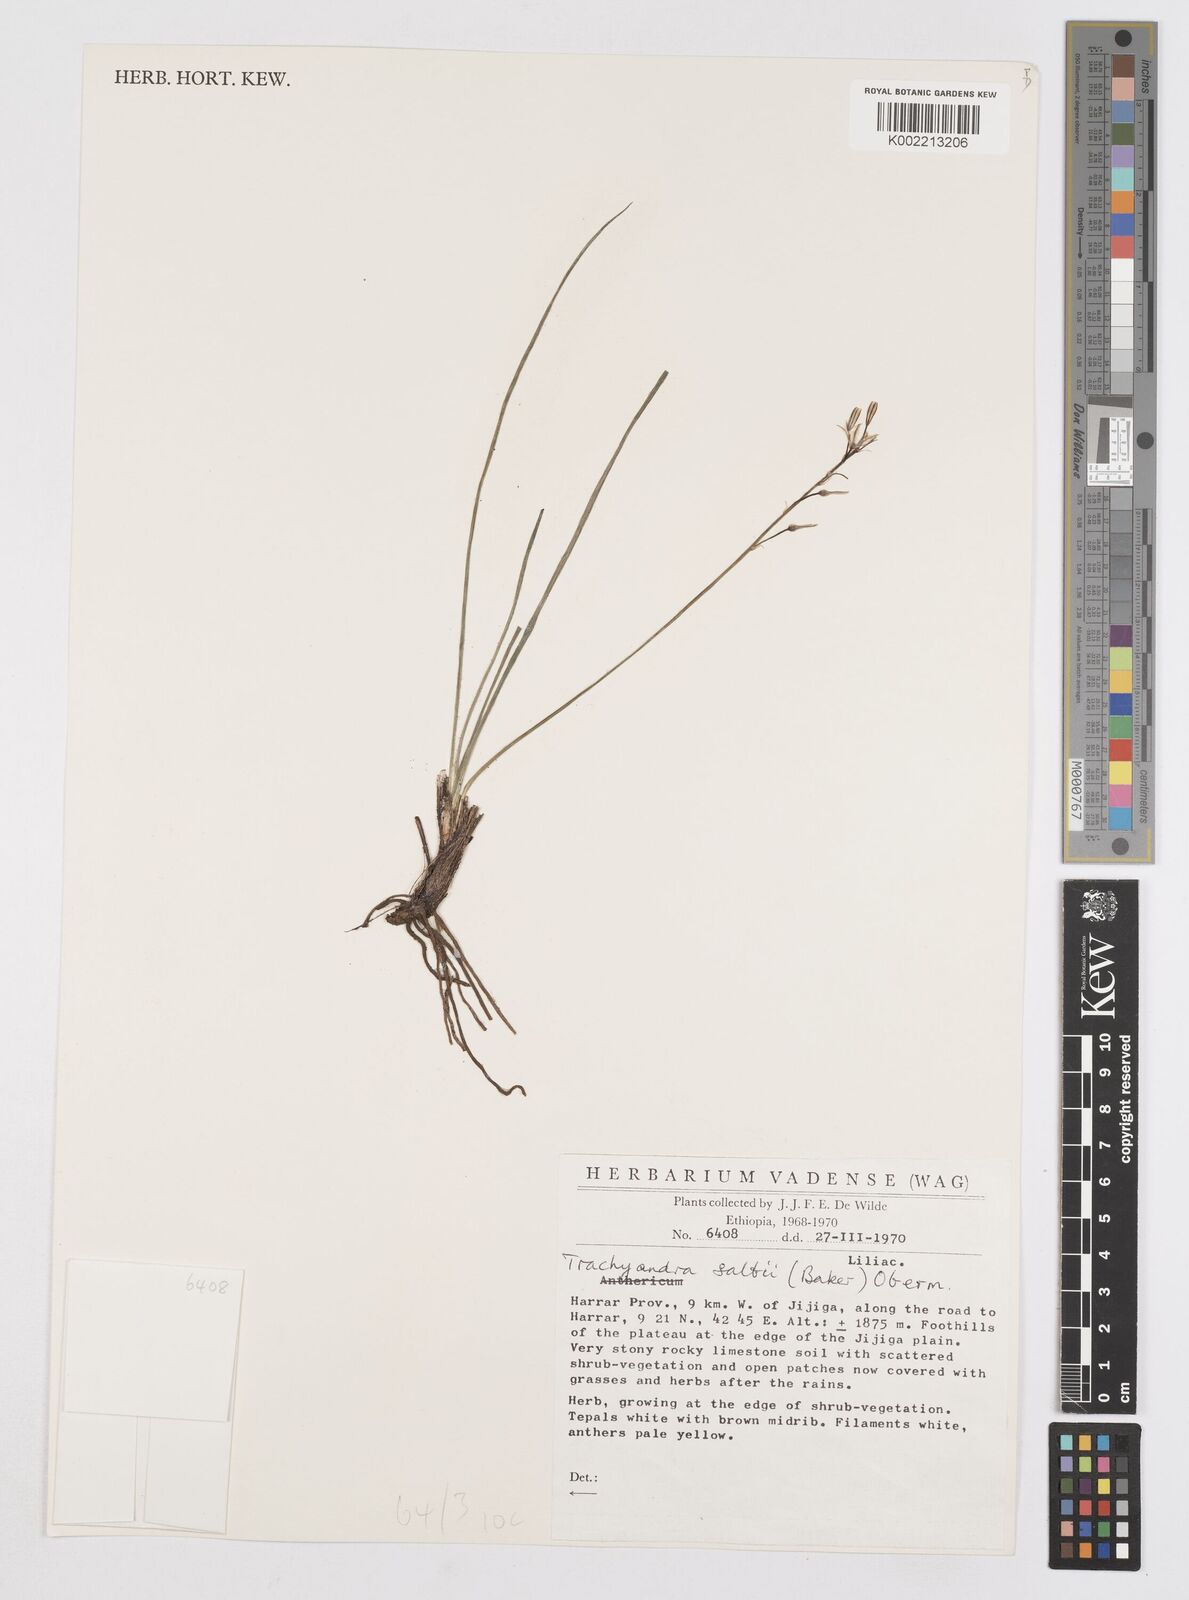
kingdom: Plantae
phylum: Tracheophyta
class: Liliopsida
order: Asparagales
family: Asphodelaceae
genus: Trachyandra
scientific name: Trachyandra saltii
